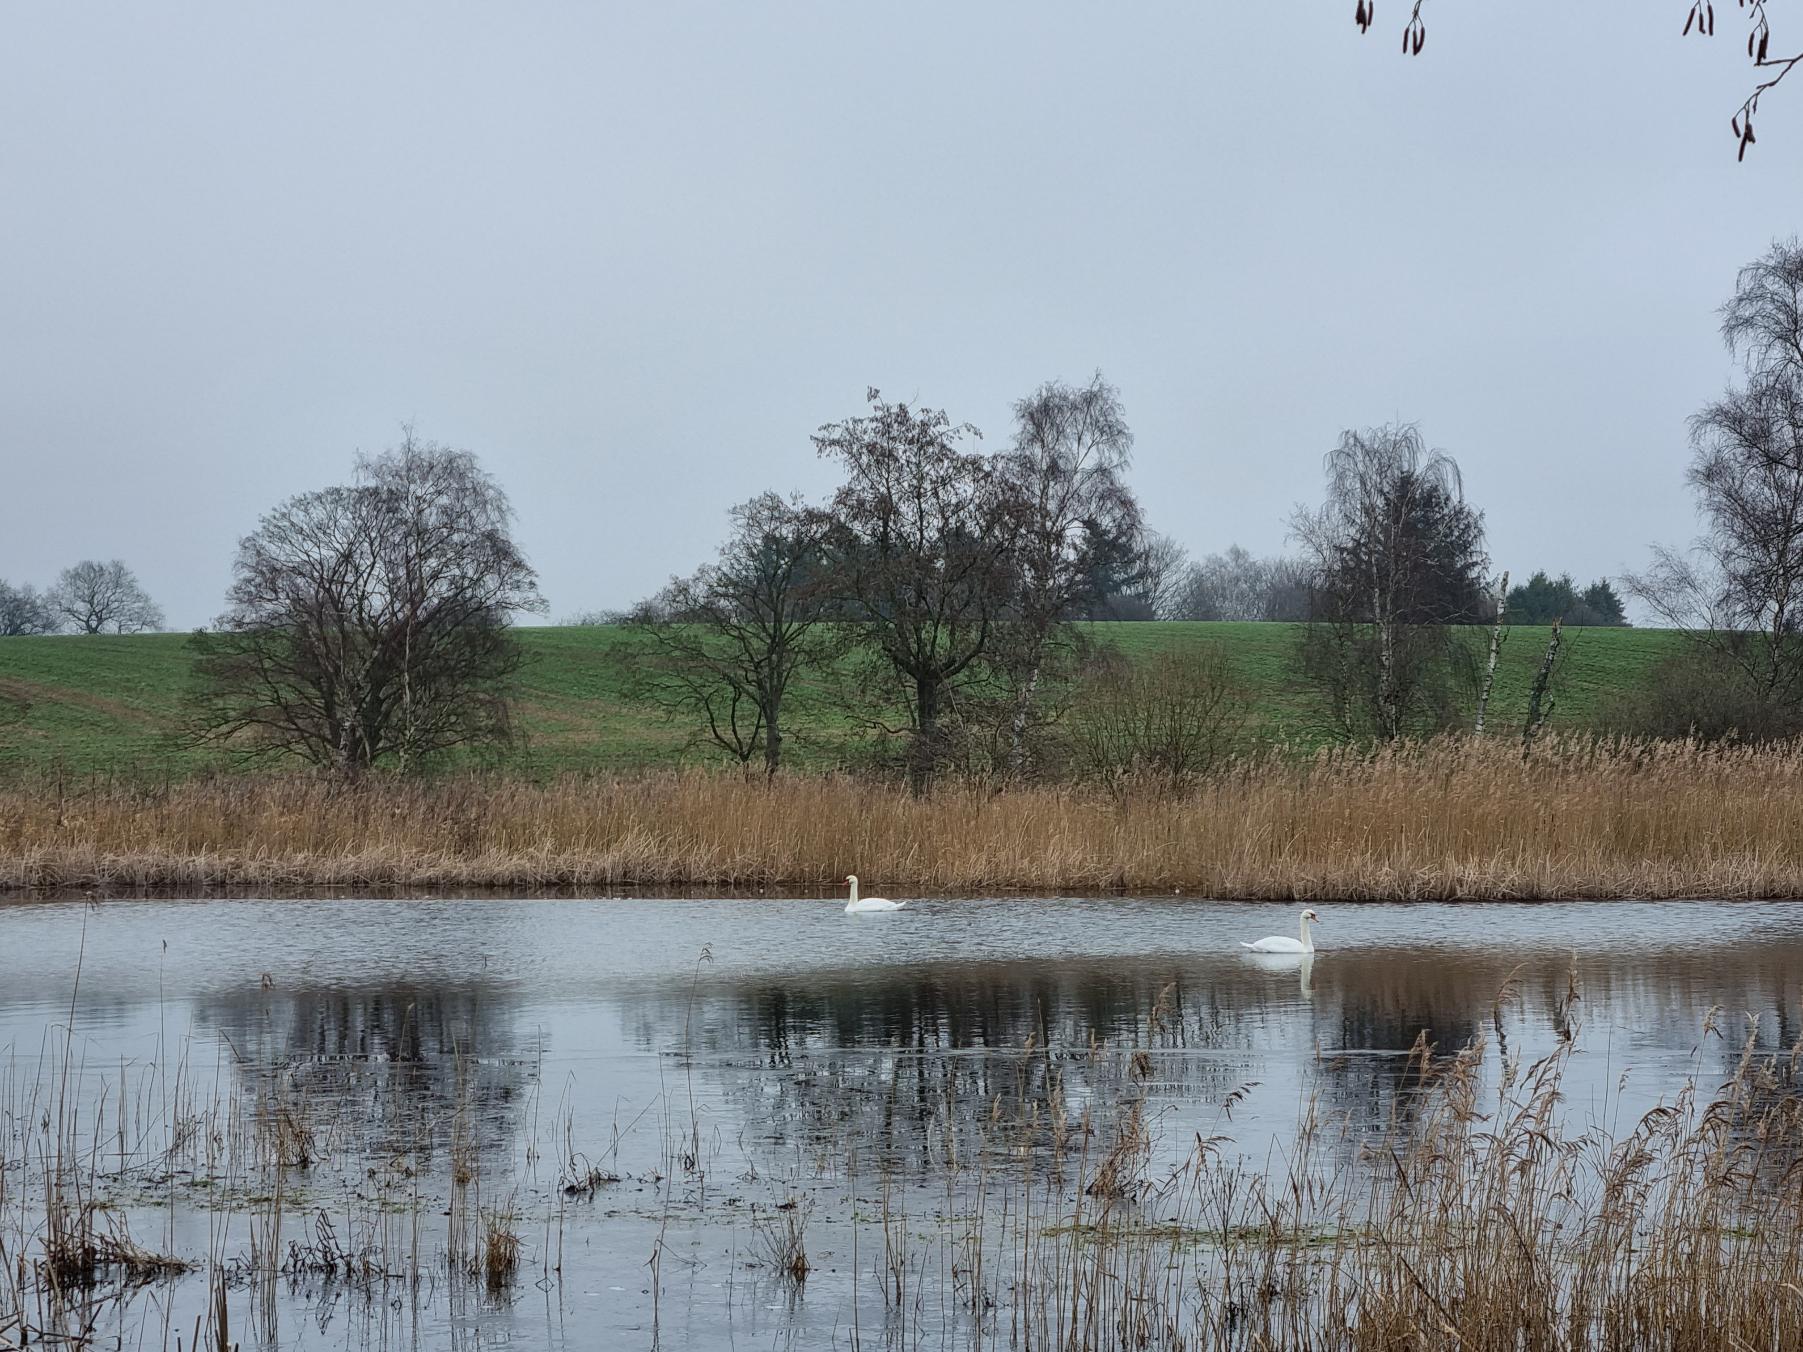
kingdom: Animalia
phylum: Chordata
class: Aves
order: Anseriformes
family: Anatidae
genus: Cygnus
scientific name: Cygnus olor
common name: Knopsvane
